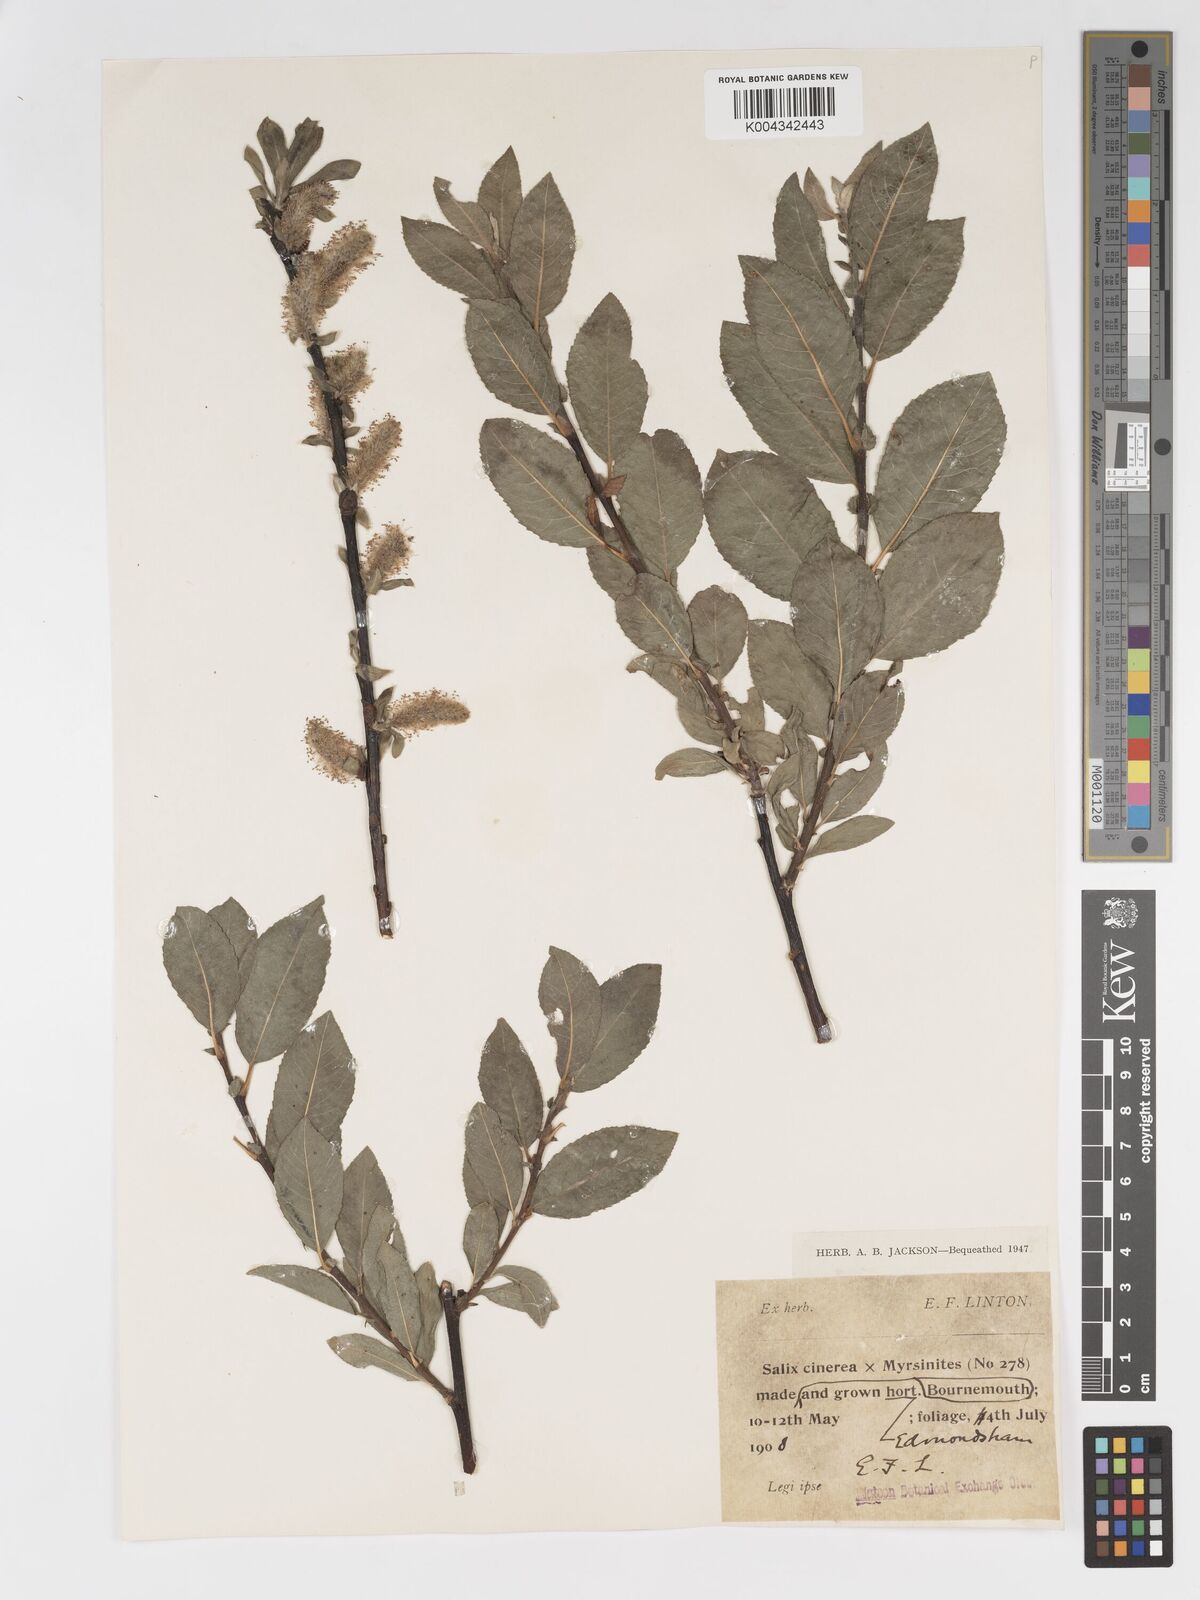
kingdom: Plantae
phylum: Tracheophyta
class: Magnoliopsida
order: Malpighiales
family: Salicaceae
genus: Salix
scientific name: Salix
